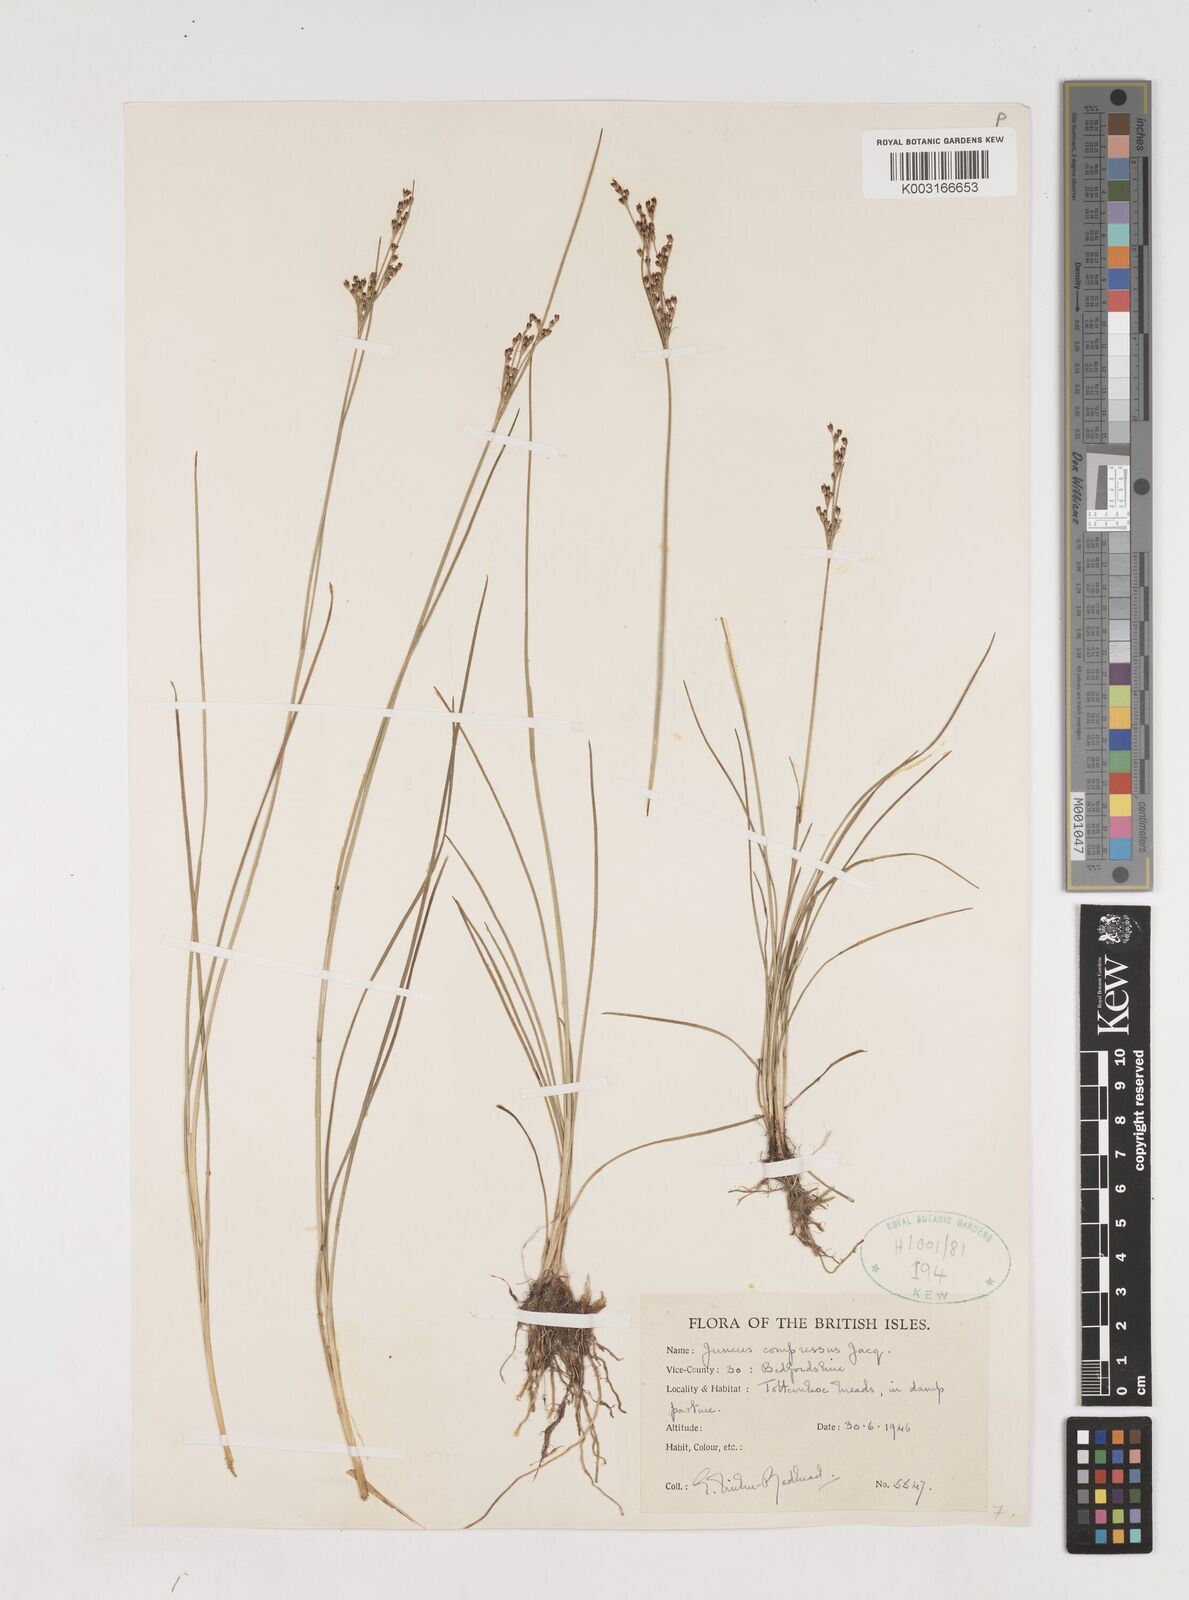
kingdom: Plantae
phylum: Tracheophyta
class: Liliopsida
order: Poales
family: Juncaceae
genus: Juncus
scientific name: Juncus compressus
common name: Round-fruited rush
